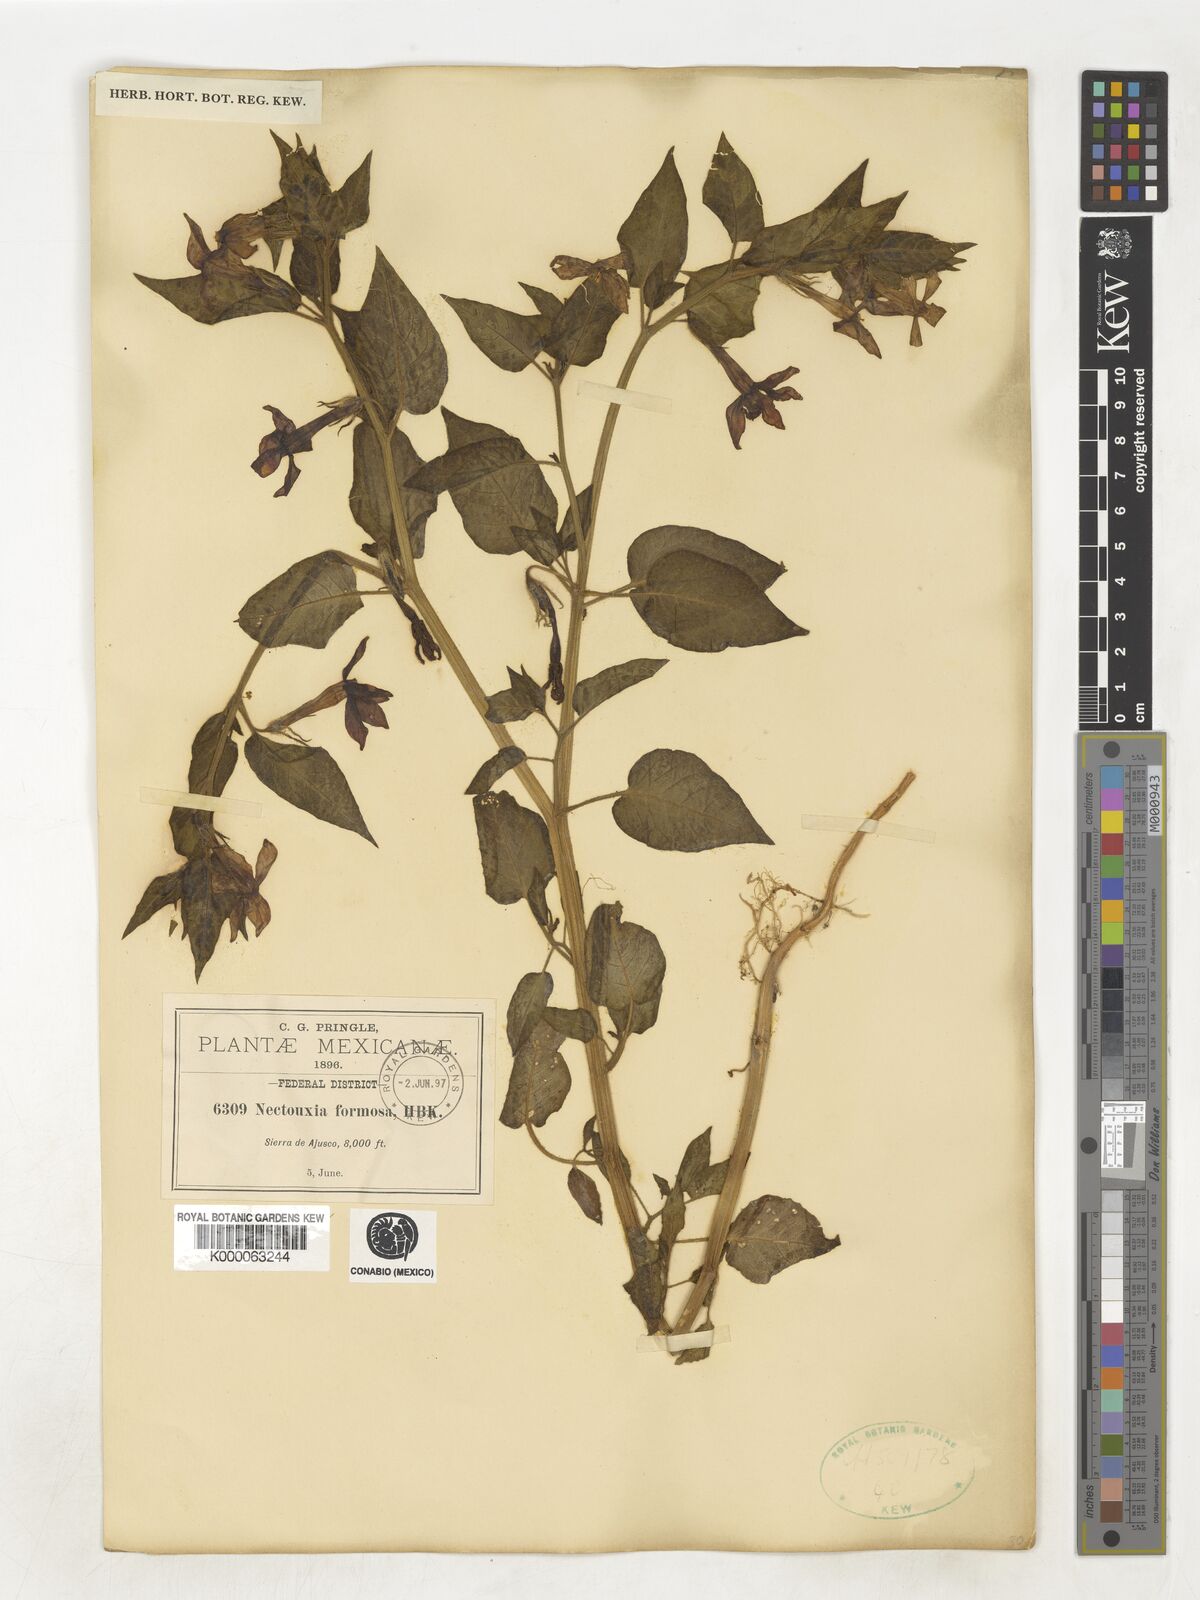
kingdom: Plantae
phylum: Tracheophyta
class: Magnoliopsida
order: Solanales
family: Solanaceae
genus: Nectouxia
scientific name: Nectouxia formosa
